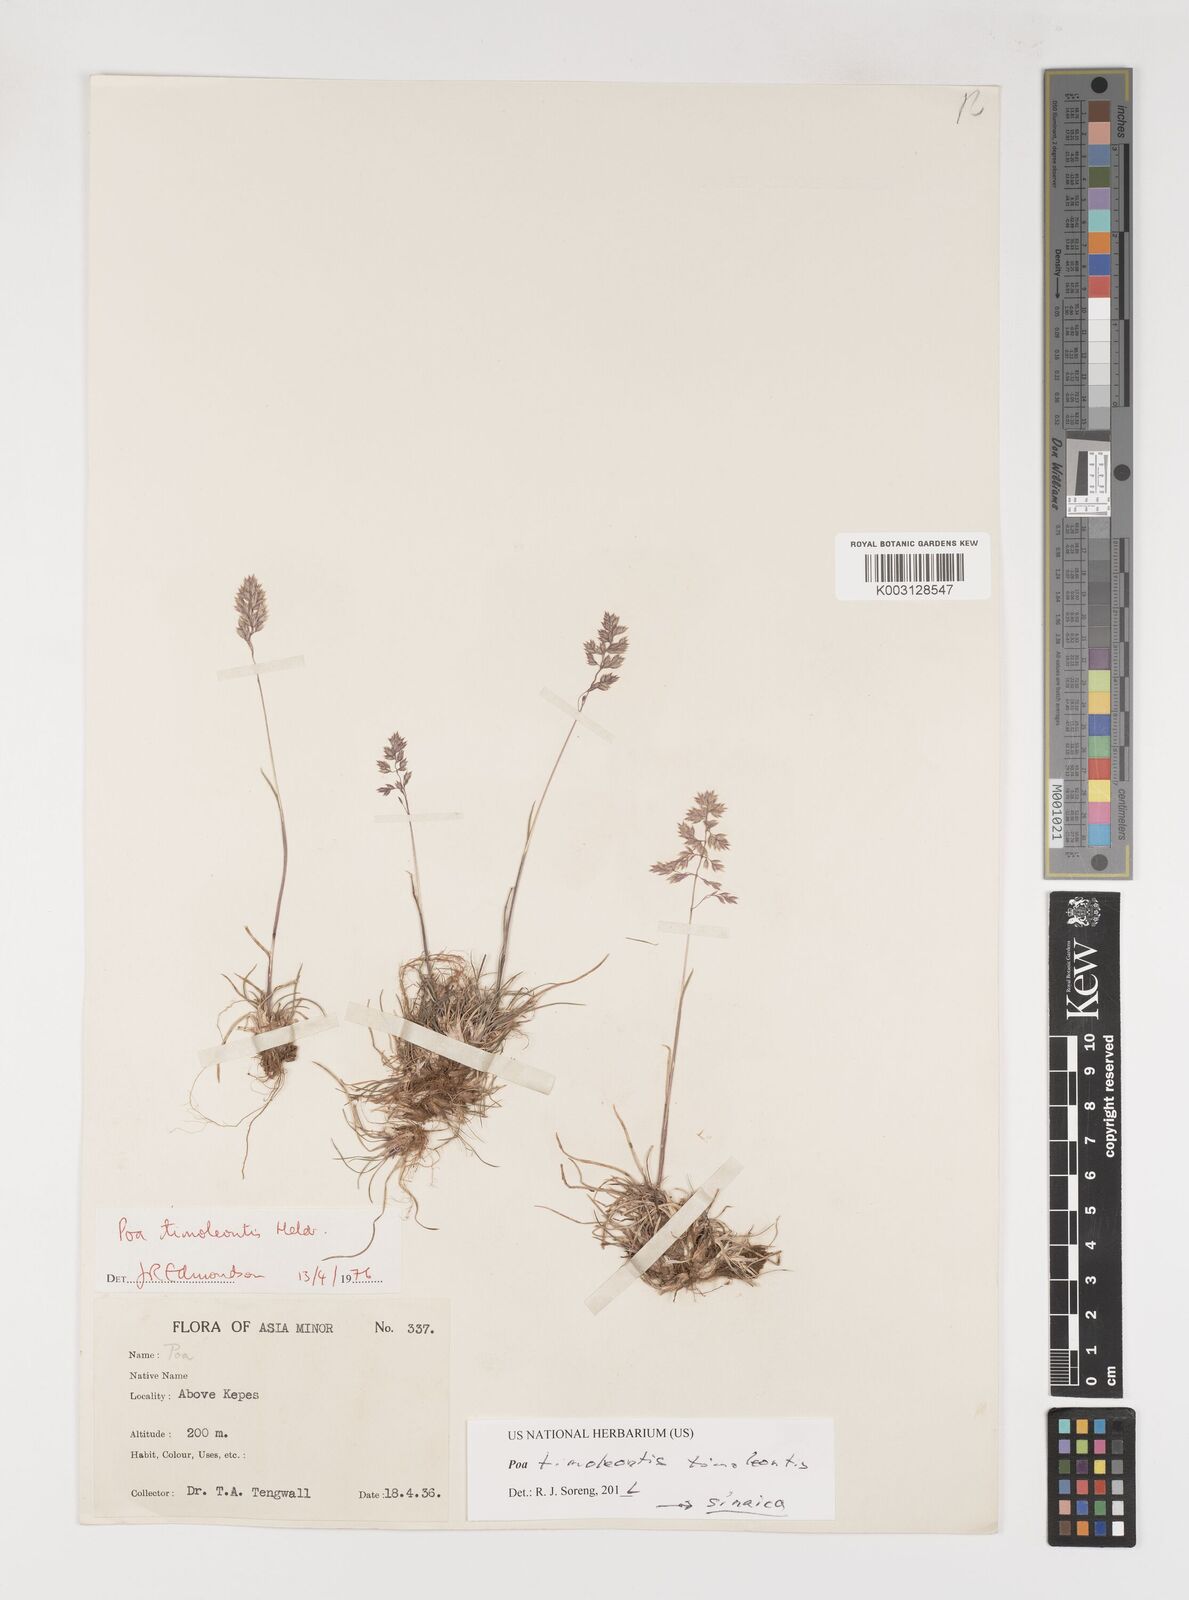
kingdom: Plantae
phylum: Tracheophyta
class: Liliopsida
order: Poales
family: Poaceae
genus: Poa
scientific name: Poa timoleontis
